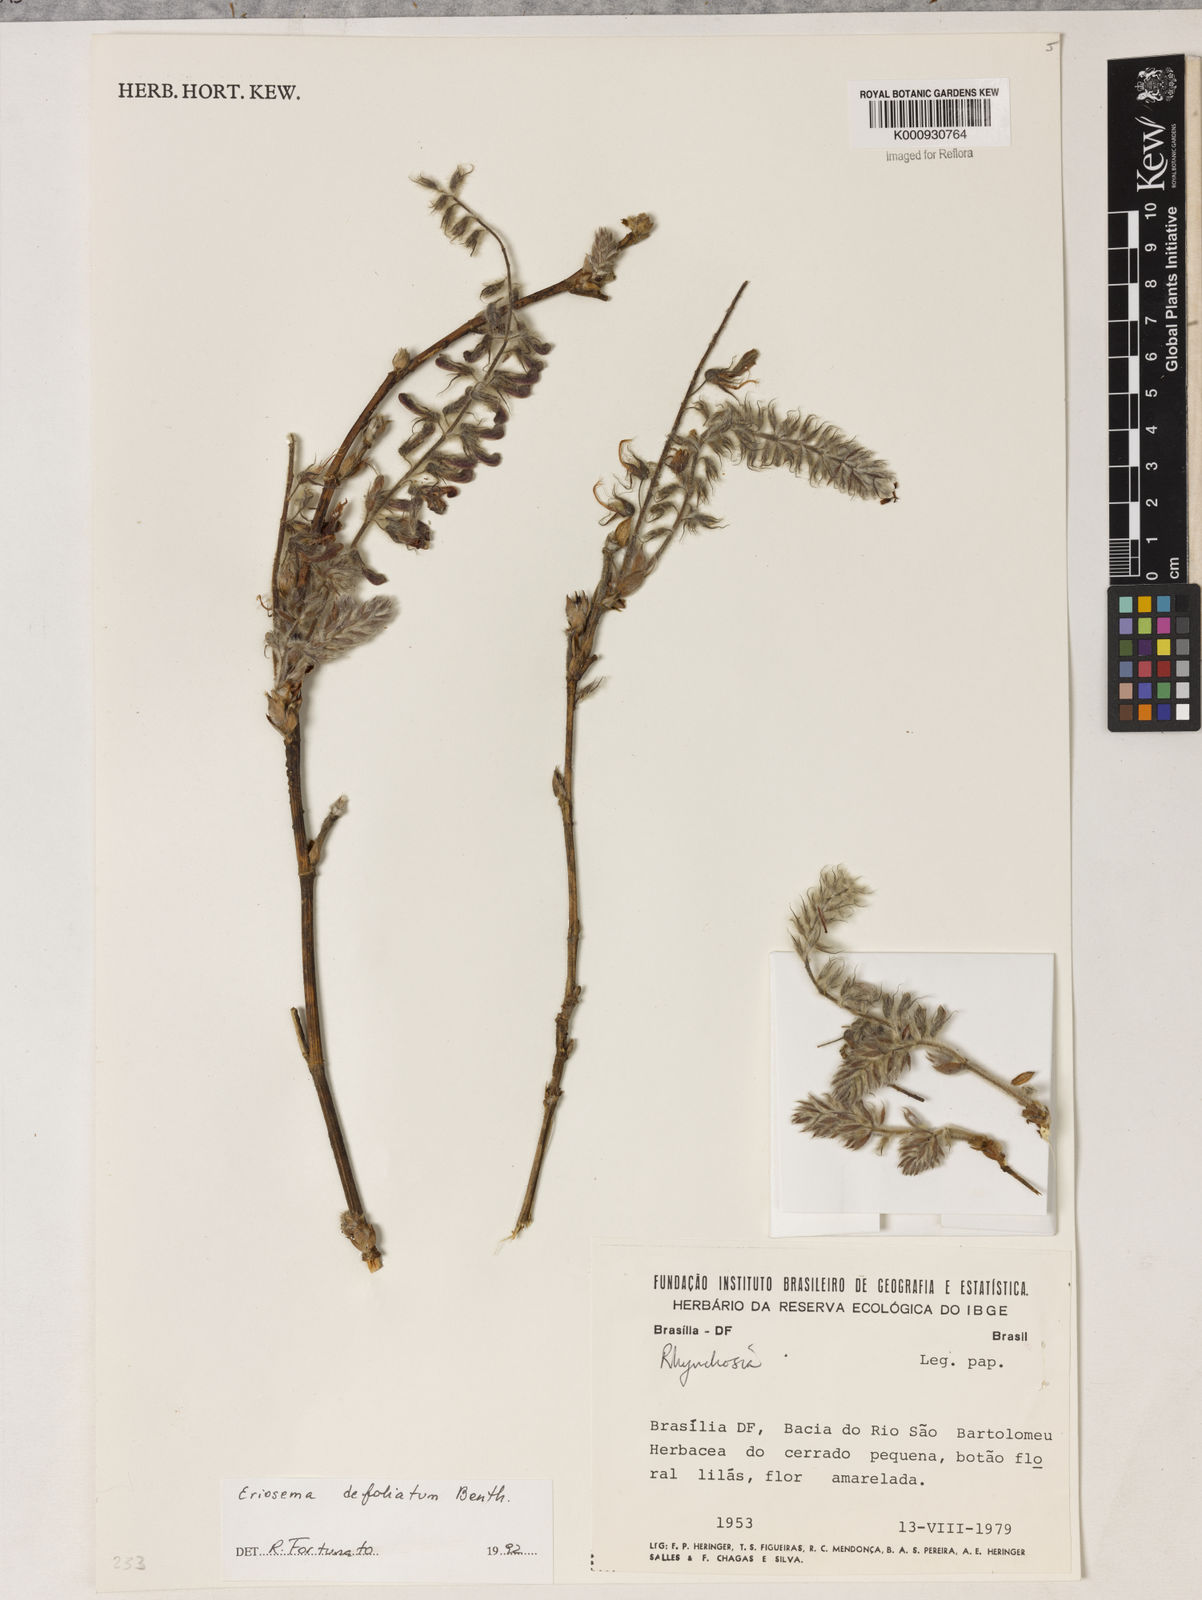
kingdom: Plantae
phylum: Tracheophyta
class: Magnoliopsida
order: Fabales
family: Fabaceae
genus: Eriosema
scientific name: Eriosema defoliatum
